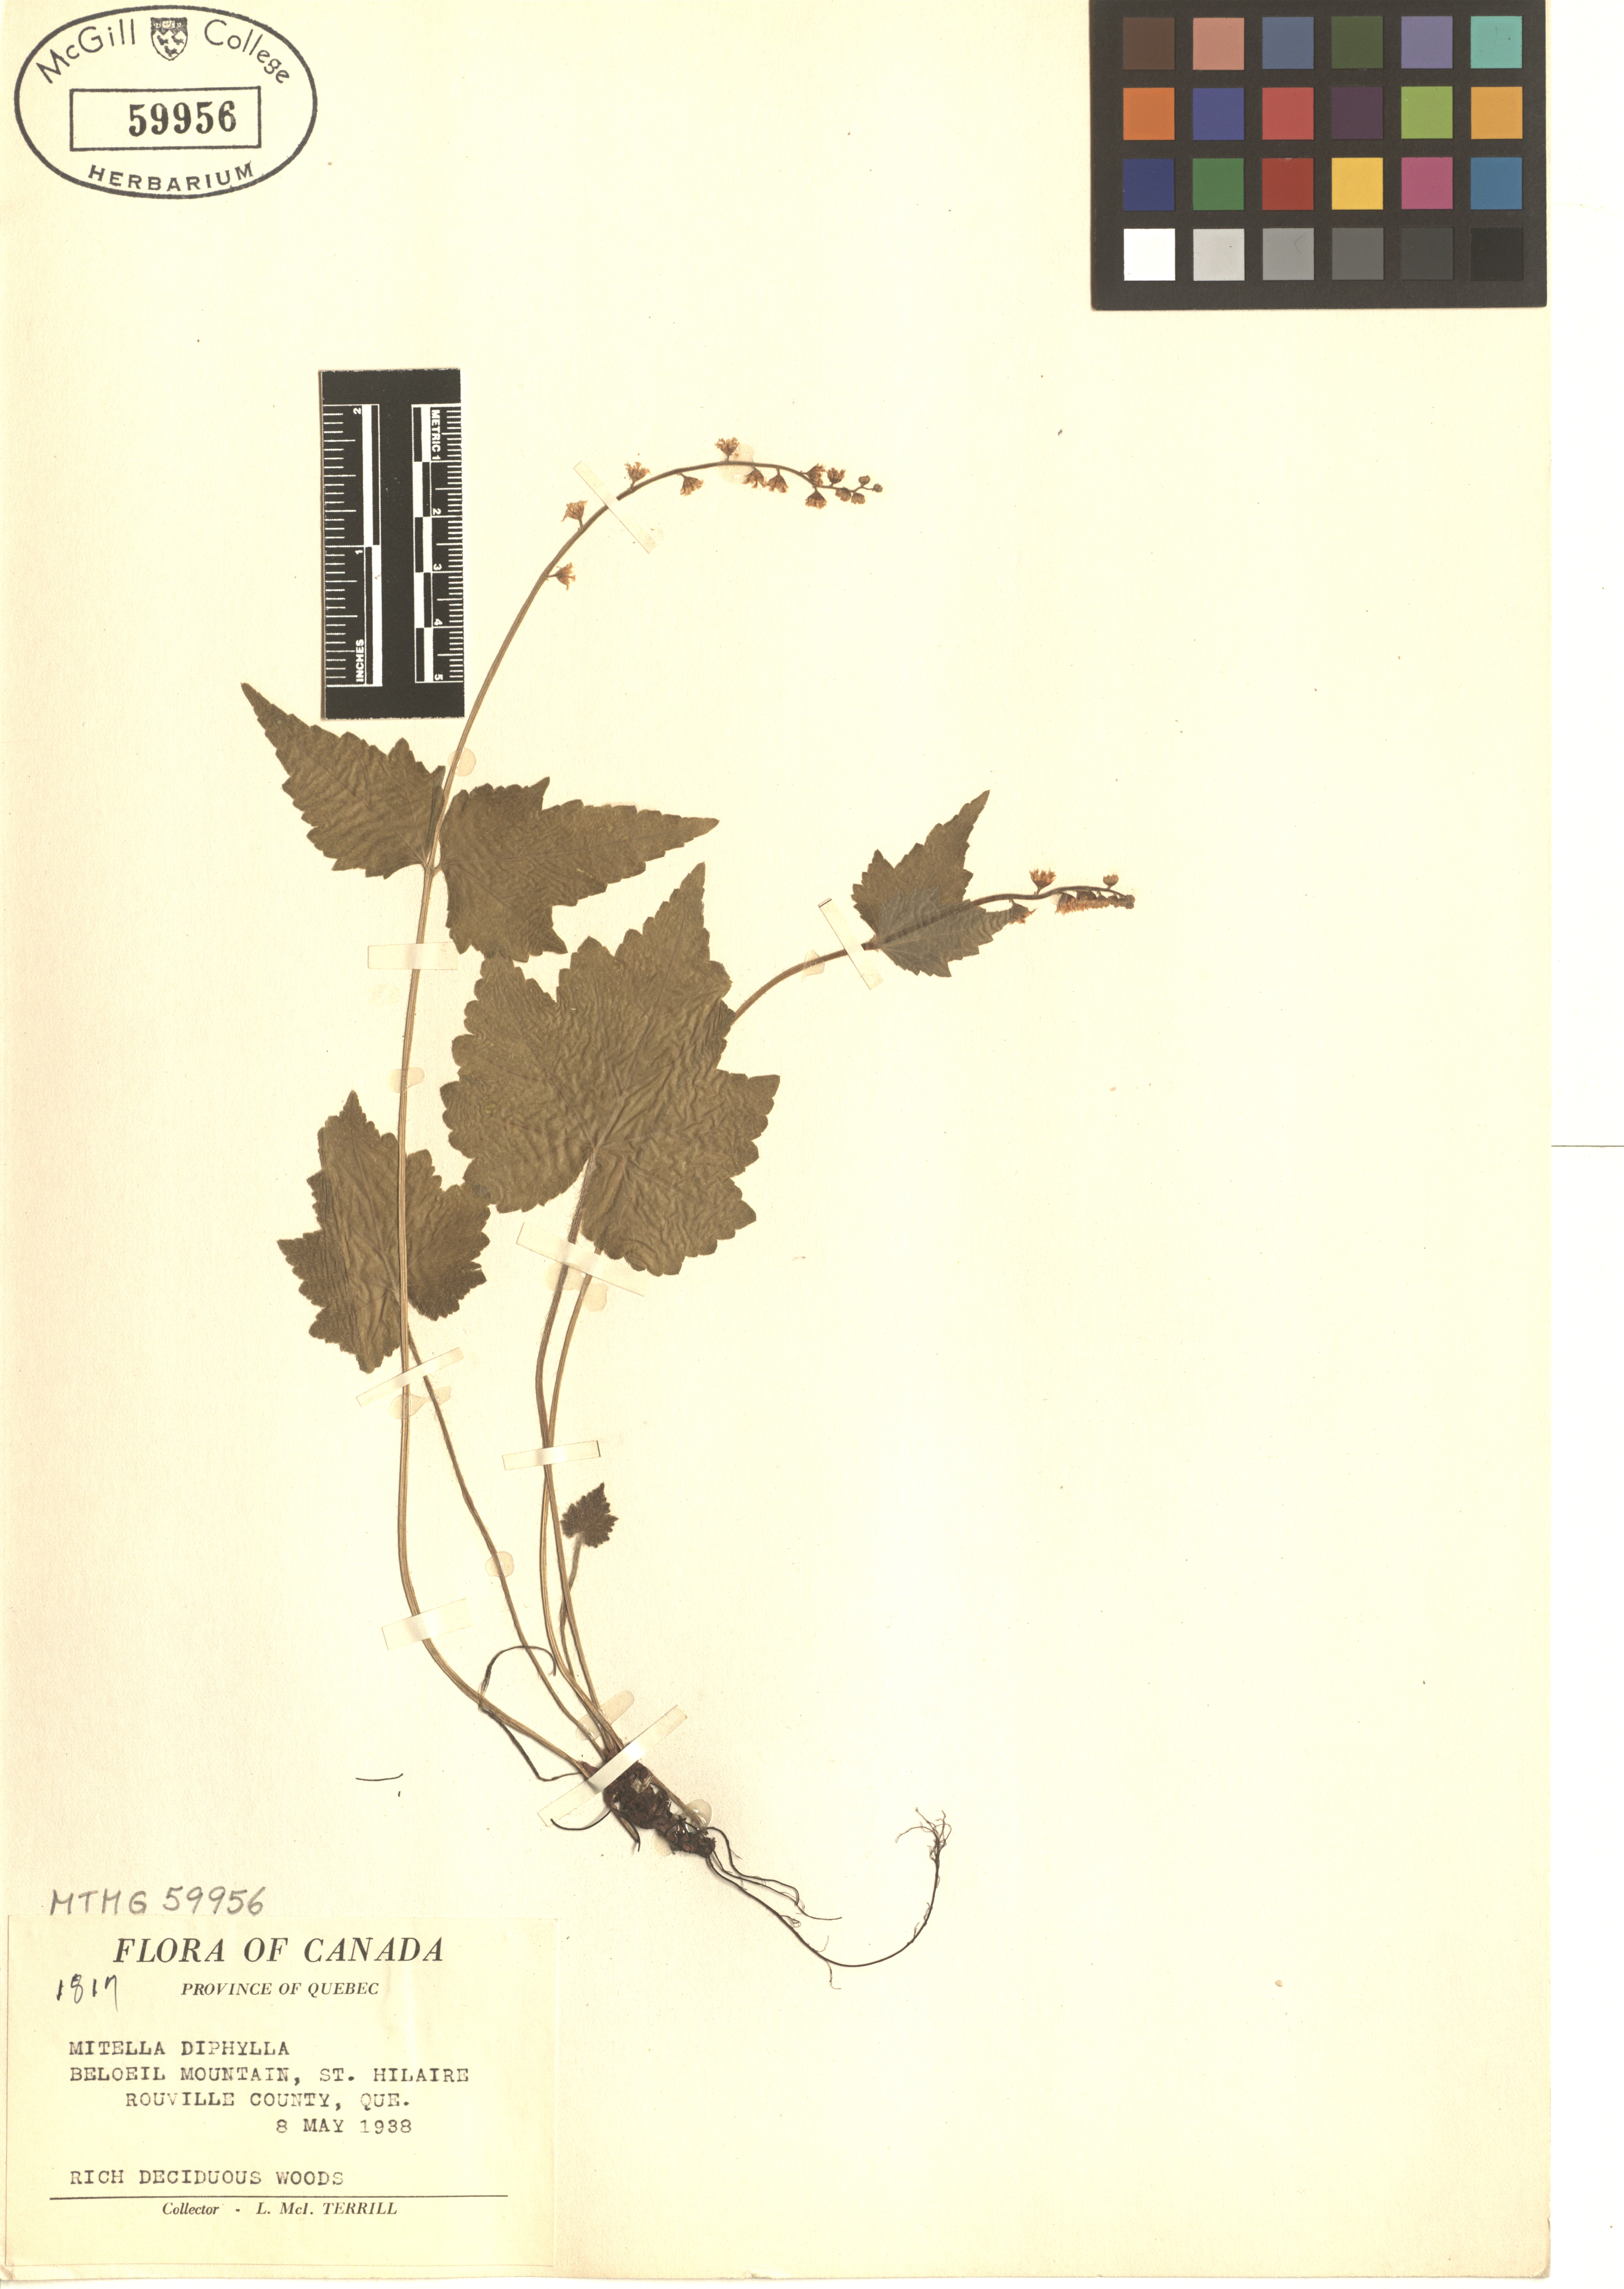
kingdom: Plantae
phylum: Tracheophyta
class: Magnoliopsida
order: Saxifragales
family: Saxifragaceae
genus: Mitella
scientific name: Mitella diphylla
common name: Coolwort
